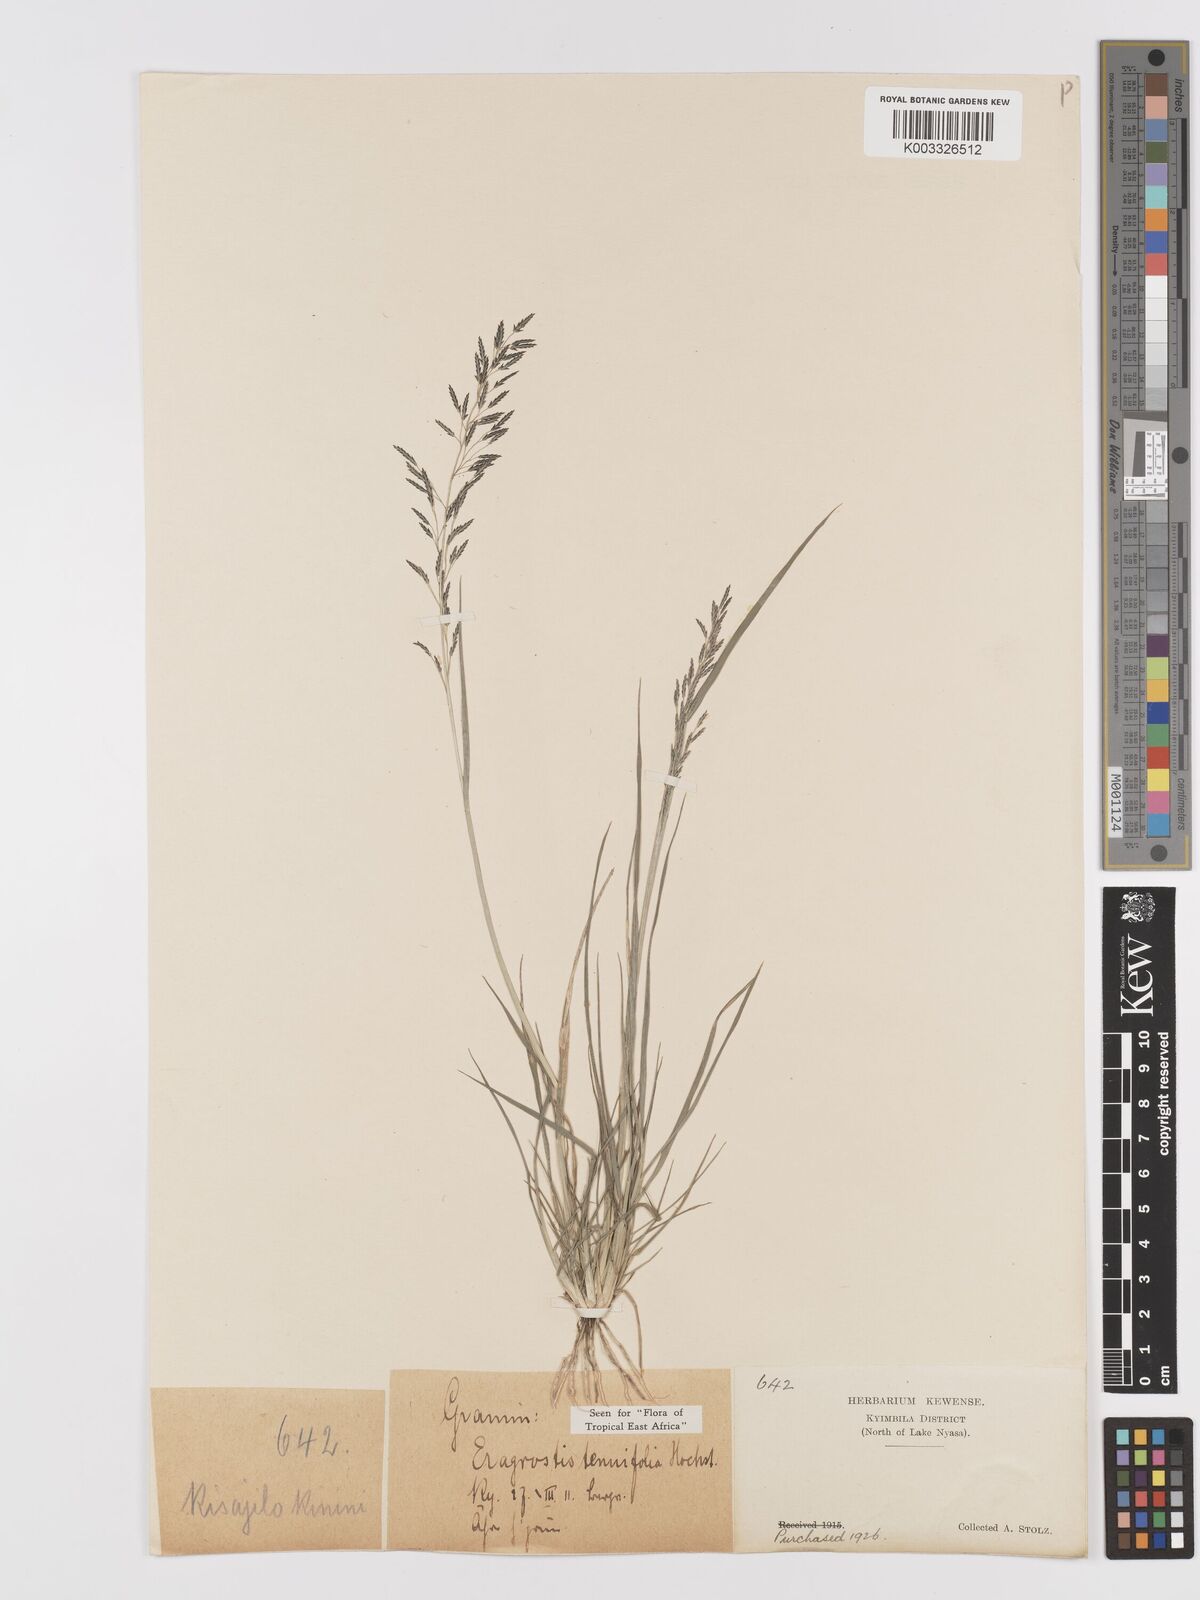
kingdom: Plantae
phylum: Tracheophyta
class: Liliopsida
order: Poales
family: Poaceae
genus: Eragrostis
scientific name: Eragrostis tenuifolia
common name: Elastic grass
